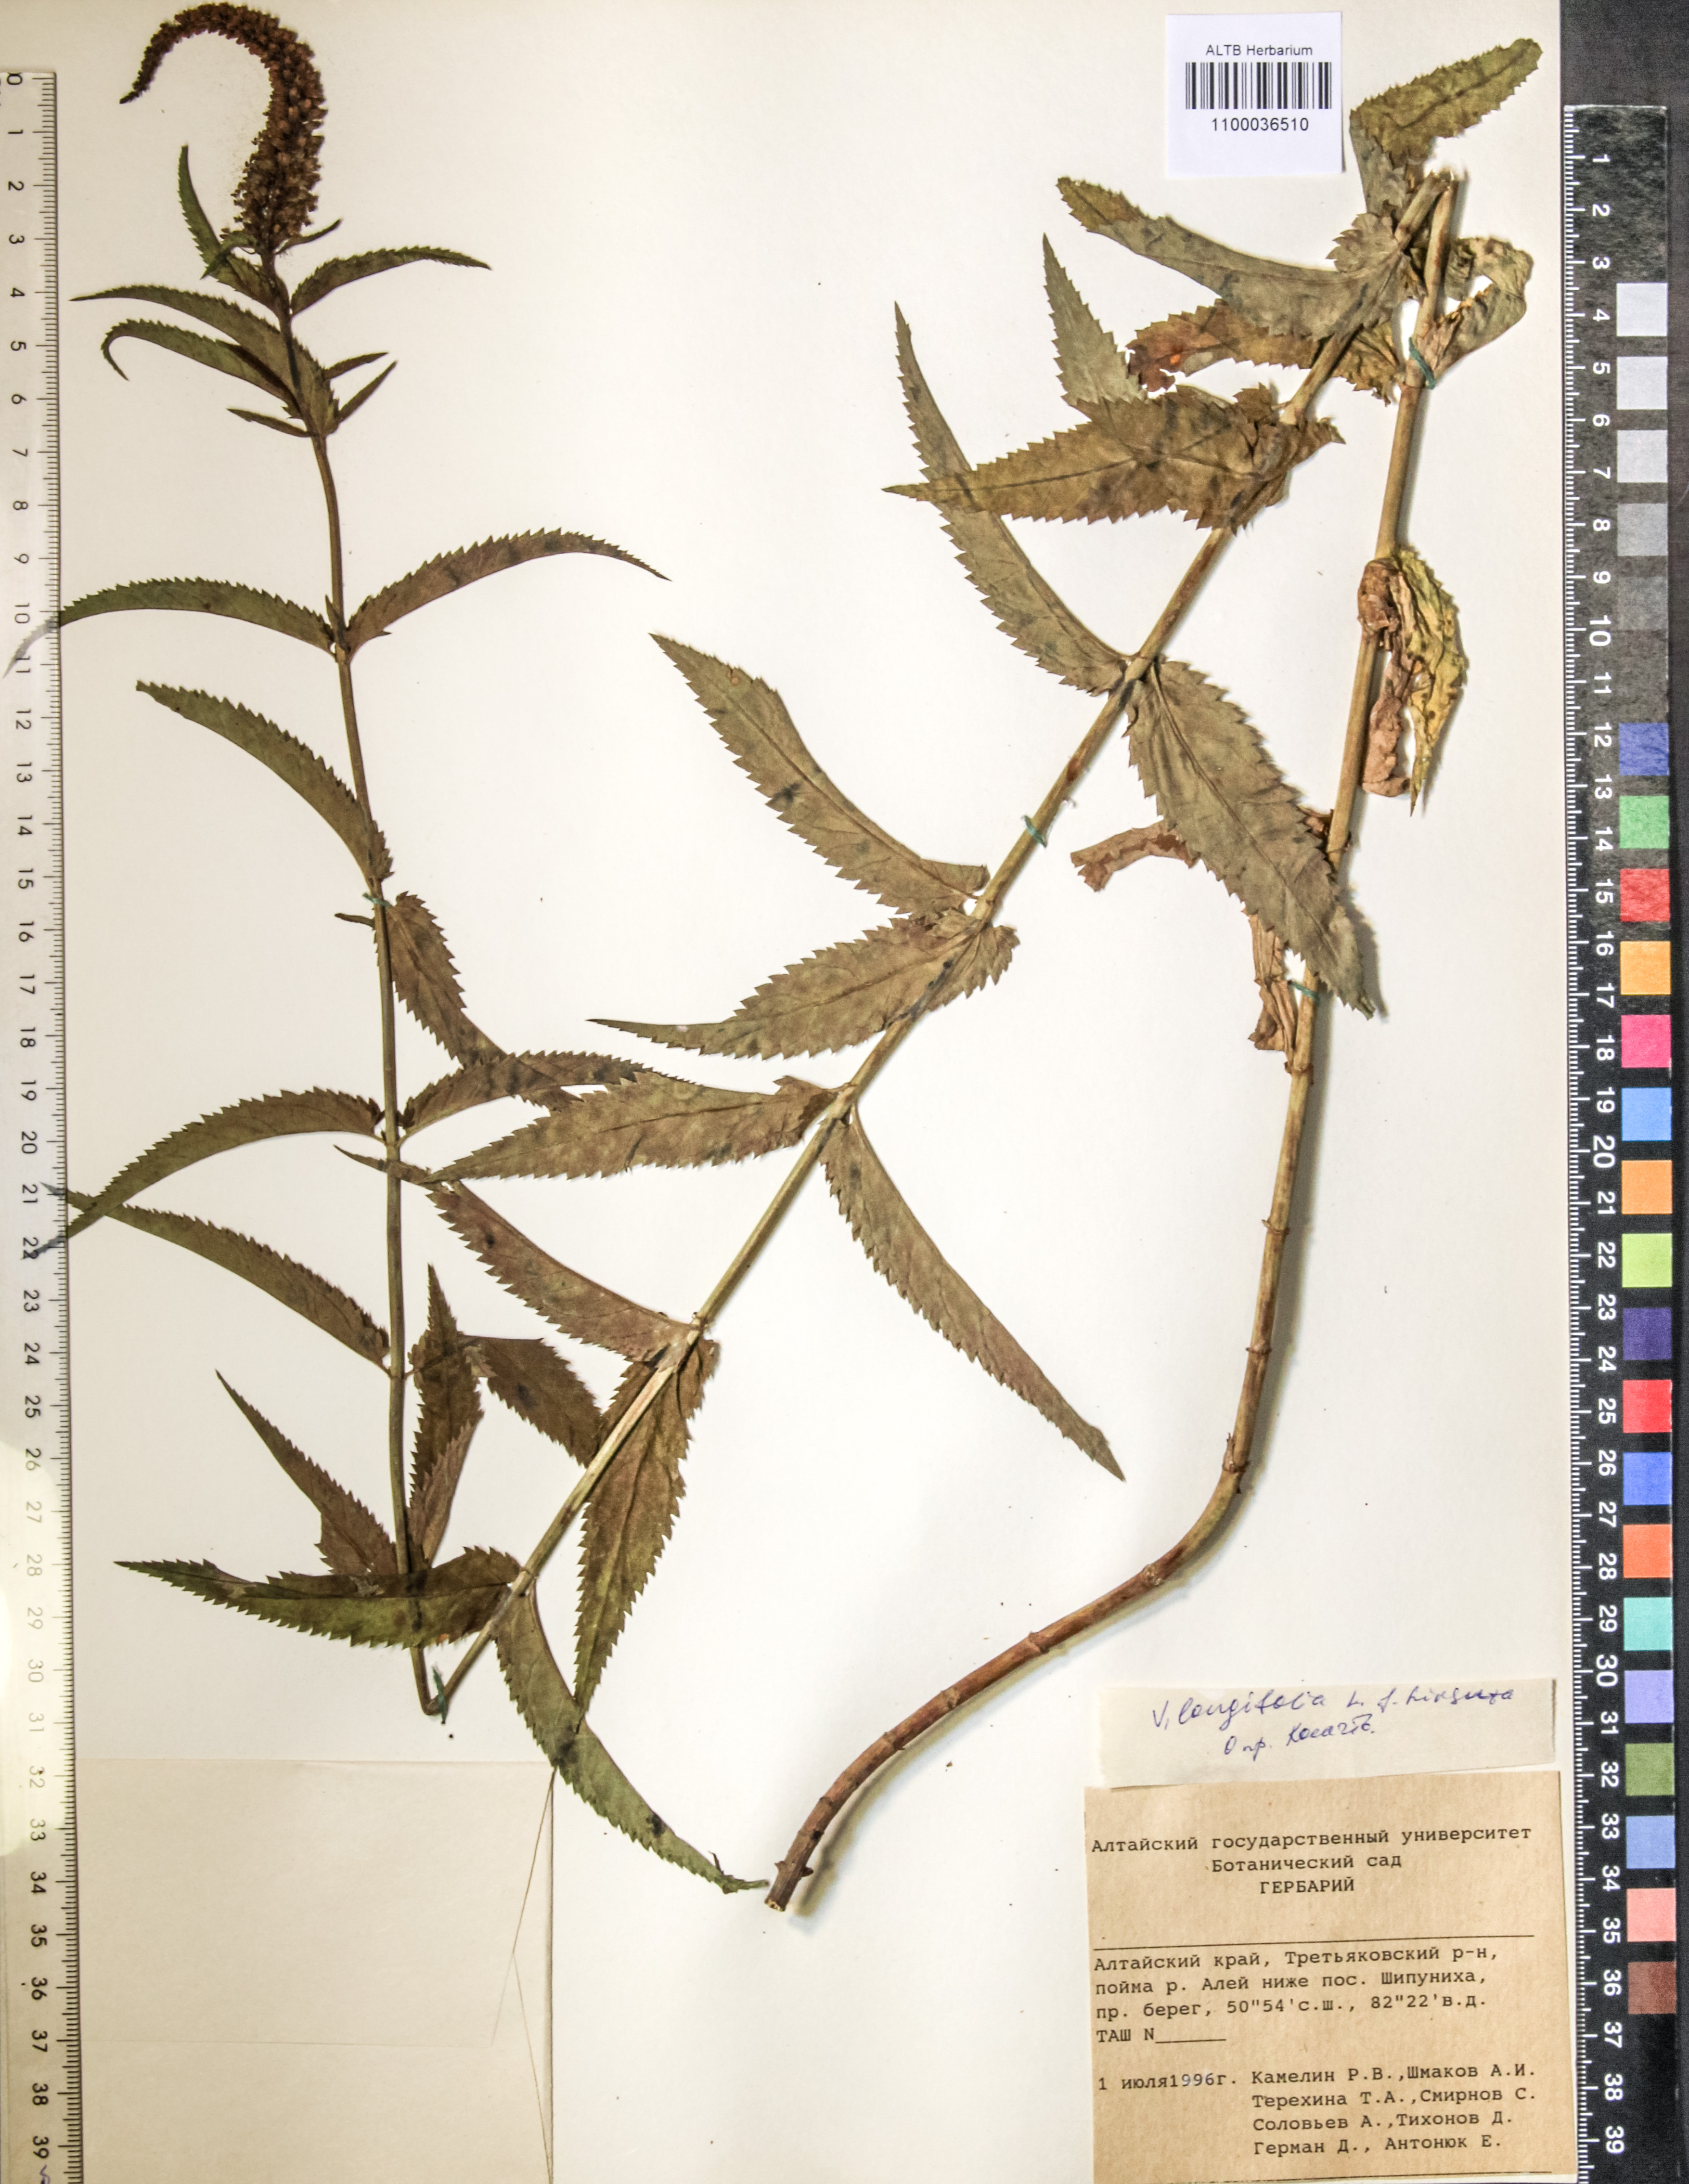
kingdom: Plantae
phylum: Tracheophyta
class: Magnoliopsida
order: Lamiales
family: Plantaginaceae
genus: Veronica
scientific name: Veronica longifolia
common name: Garden speedwell
